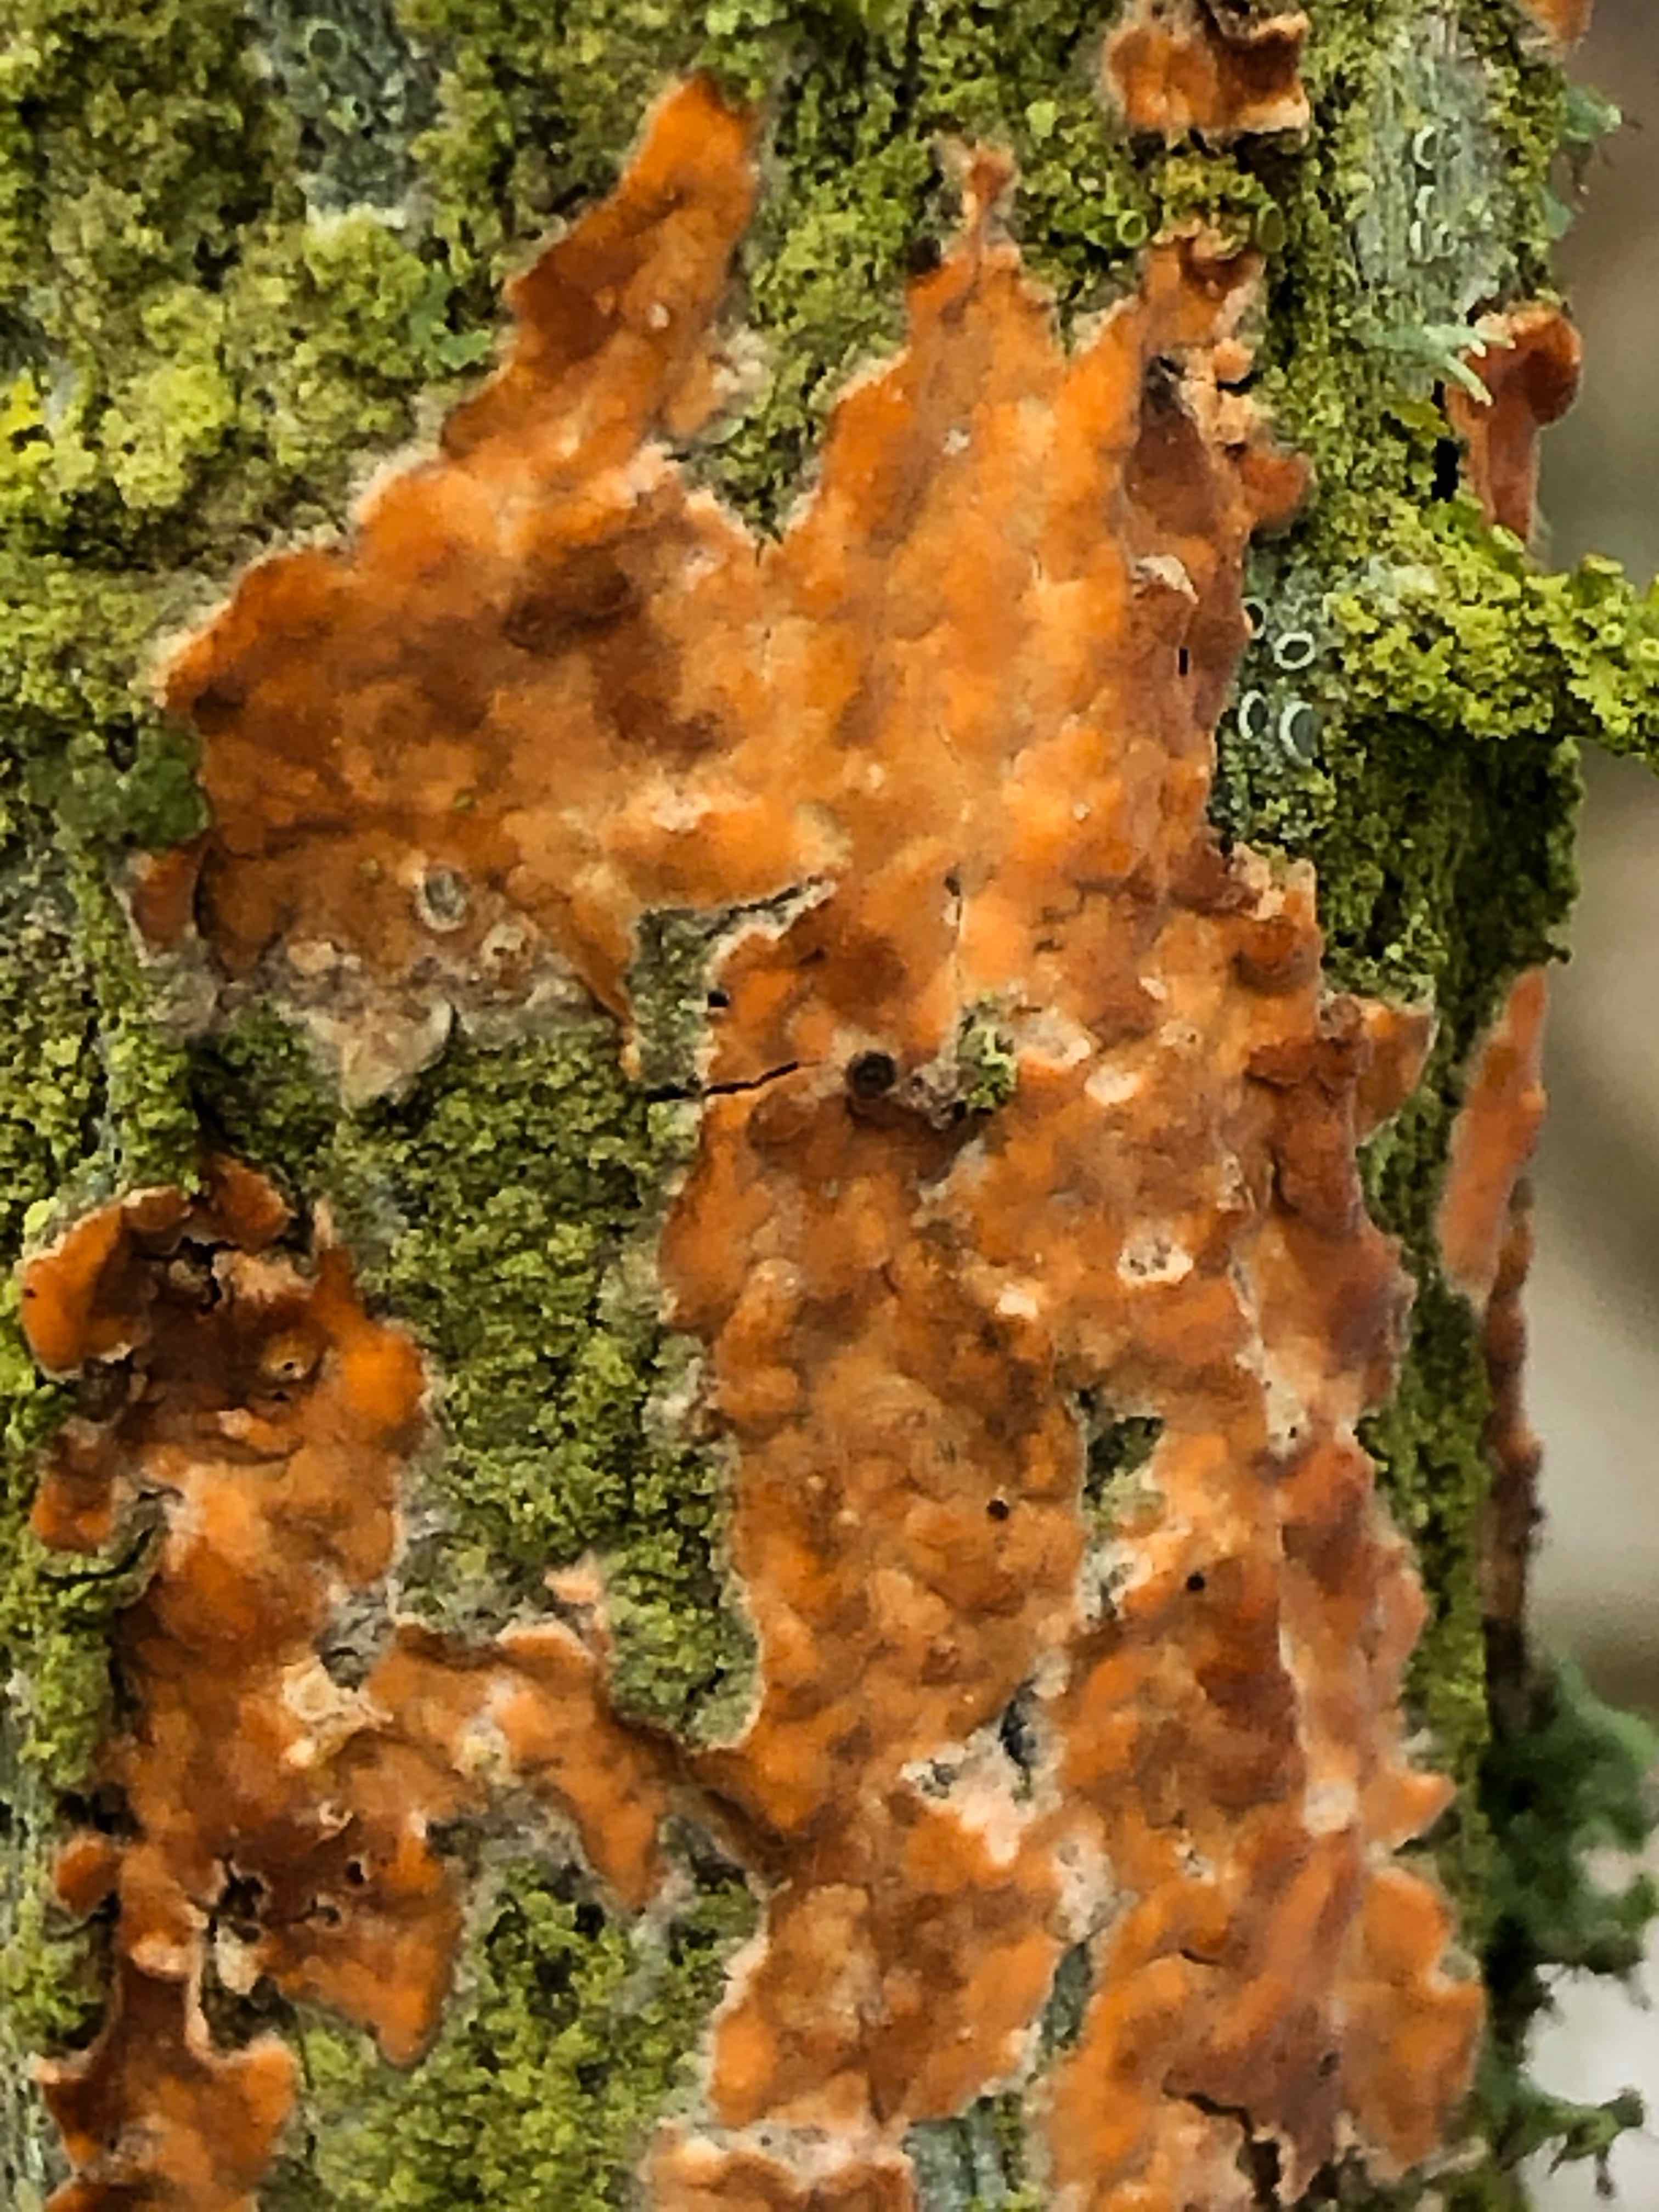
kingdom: Fungi
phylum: Basidiomycota
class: Agaricomycetes
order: Russulales
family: Peniophoraceae
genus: Peniophora
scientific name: Peniophora incarnata
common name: laksefarvet voksskind
